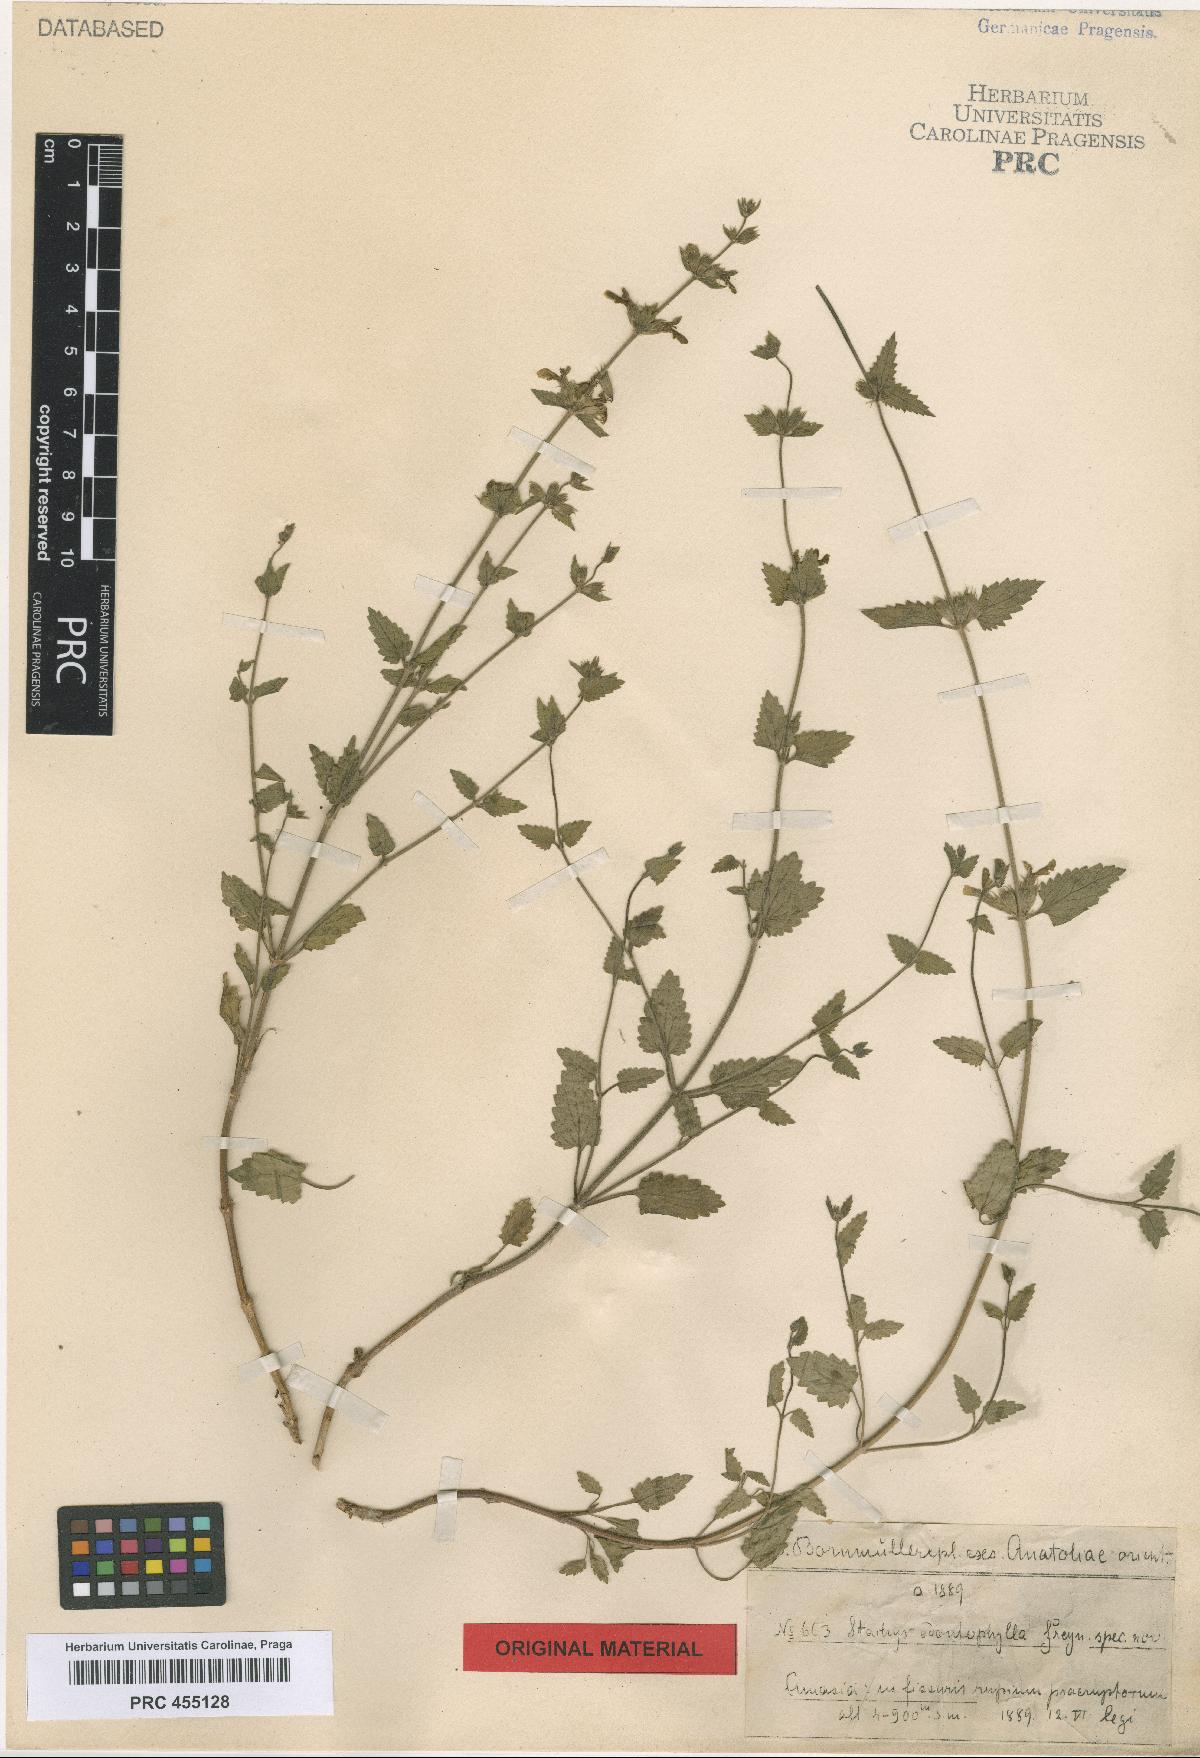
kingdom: Plantae
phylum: Tracheophyta
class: Magnoliopsida
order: Lamiales
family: Lamiaceae
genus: Stachys
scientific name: Stachys viscosa
